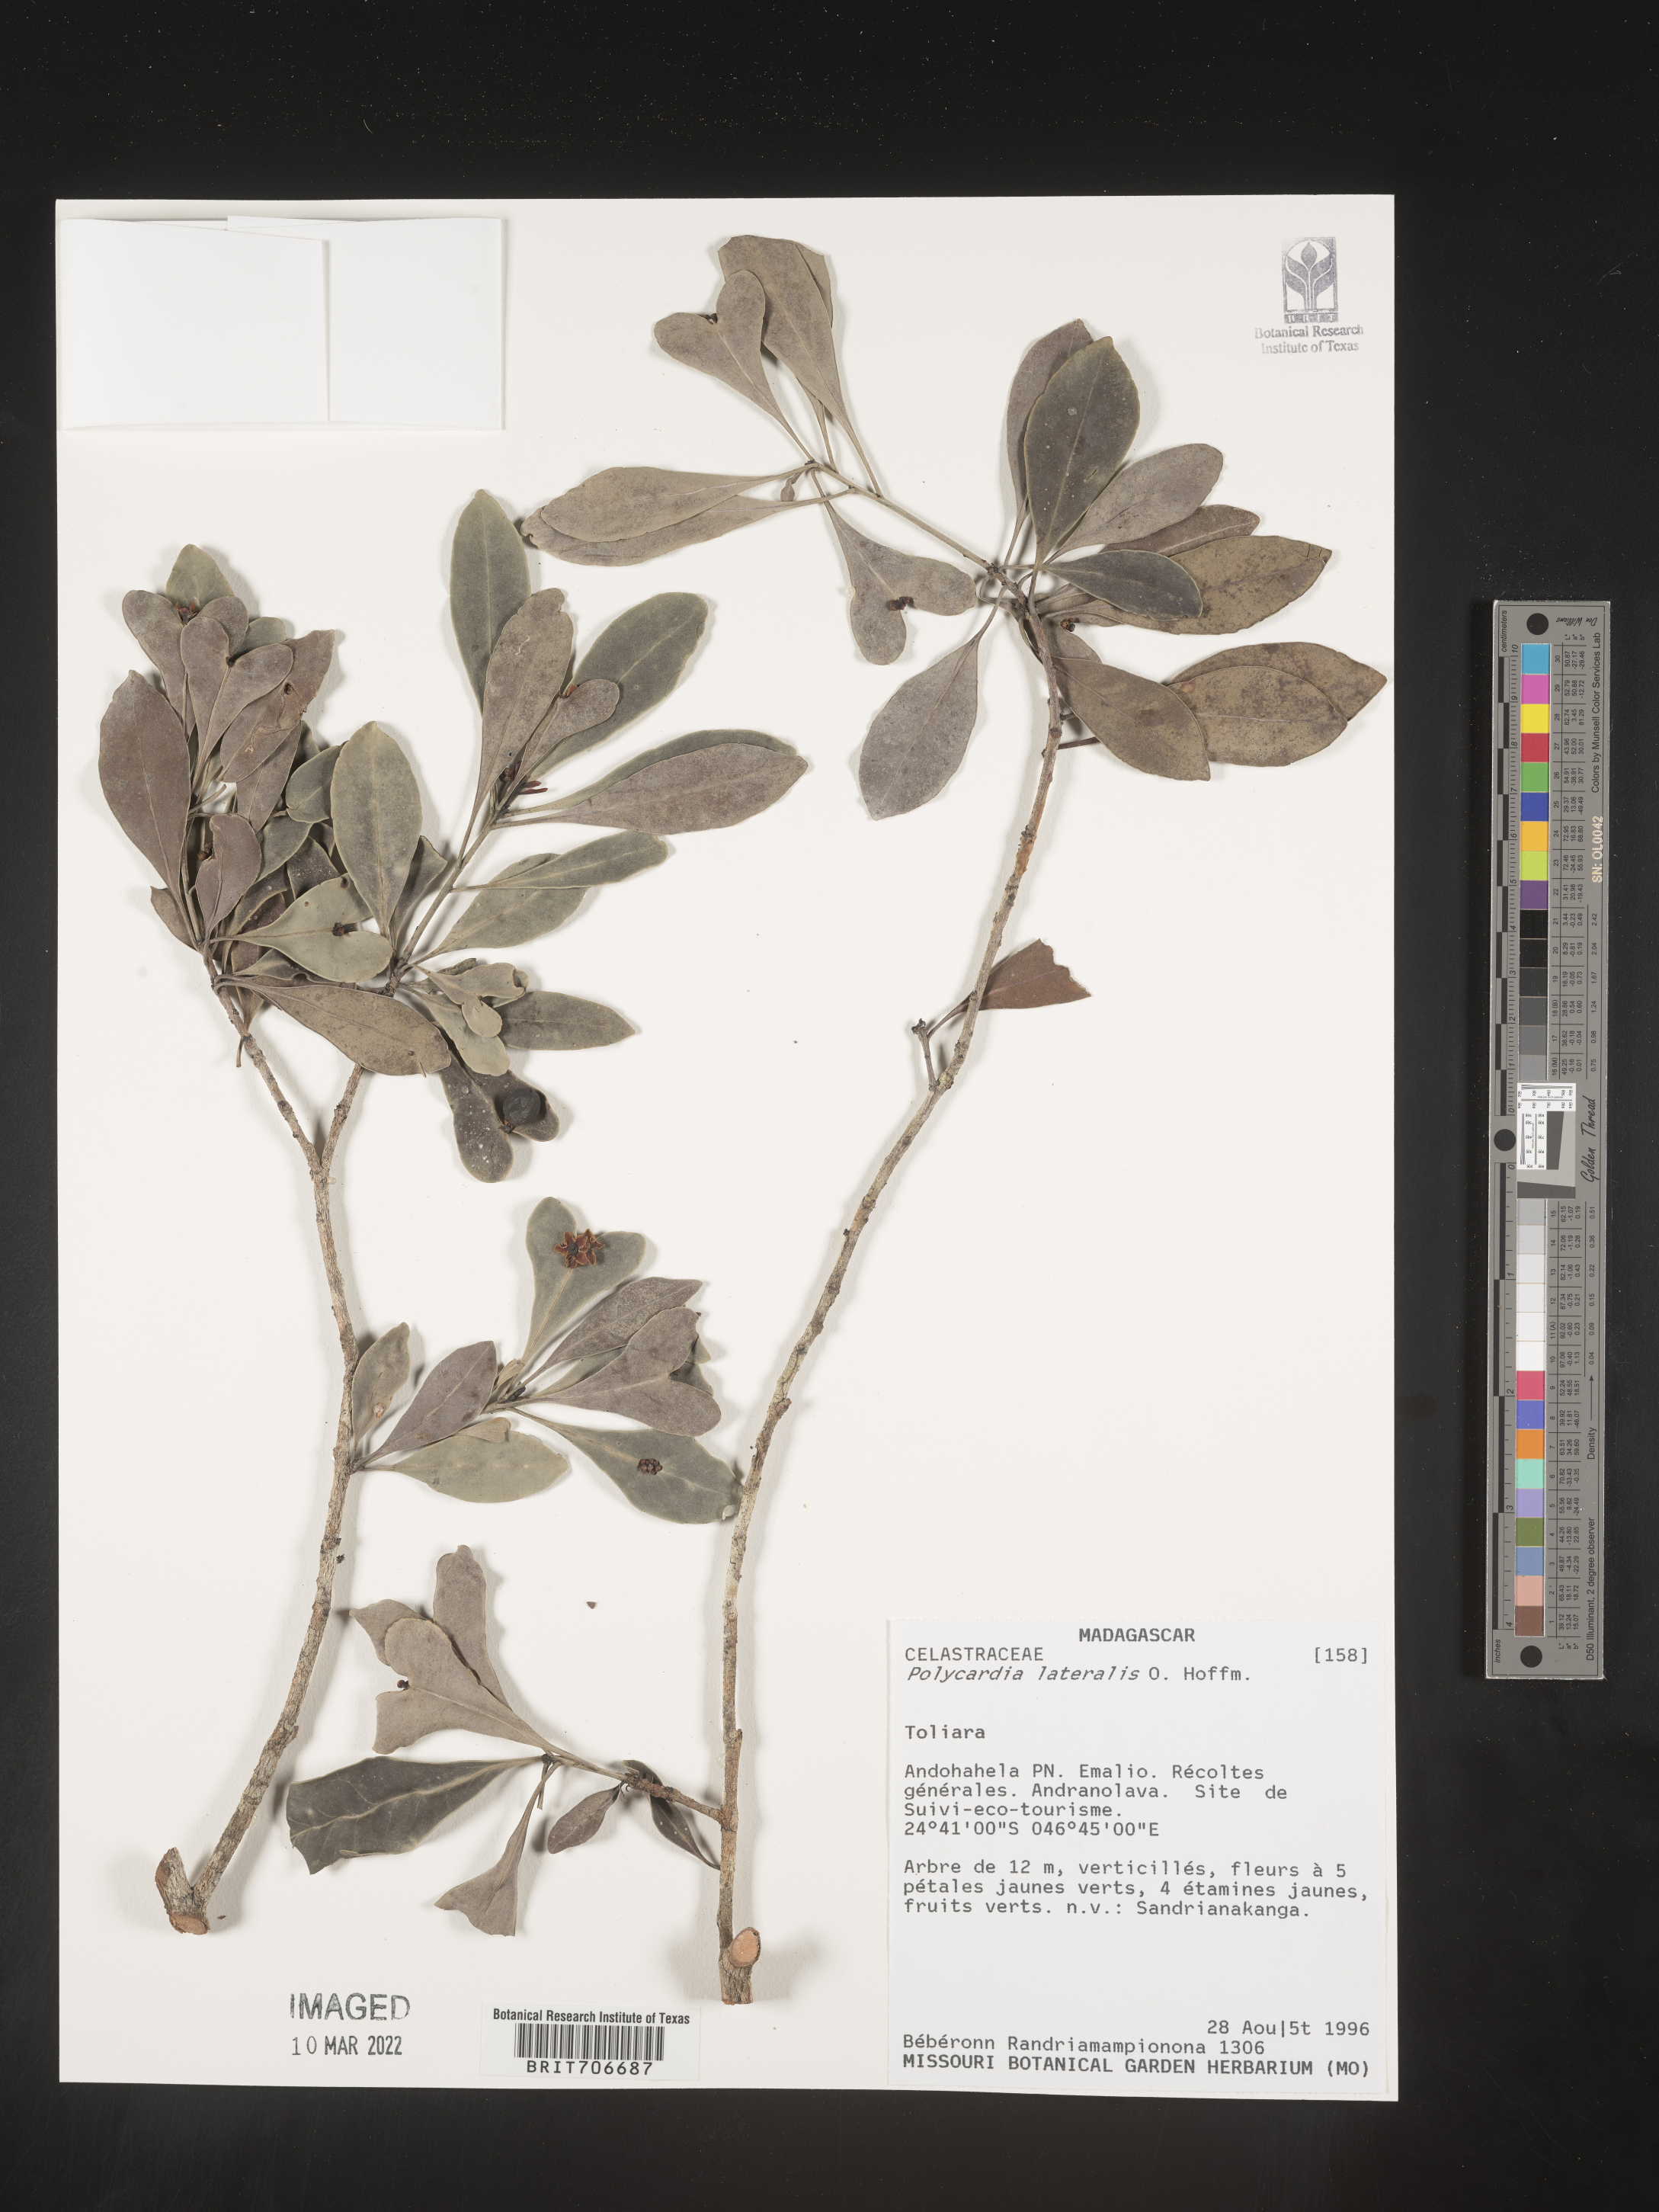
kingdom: Plantae
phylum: Tracheophyta
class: Magnoliopsida
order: Celastrales
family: Celastraceae
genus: Polycardia
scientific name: Polycardia
